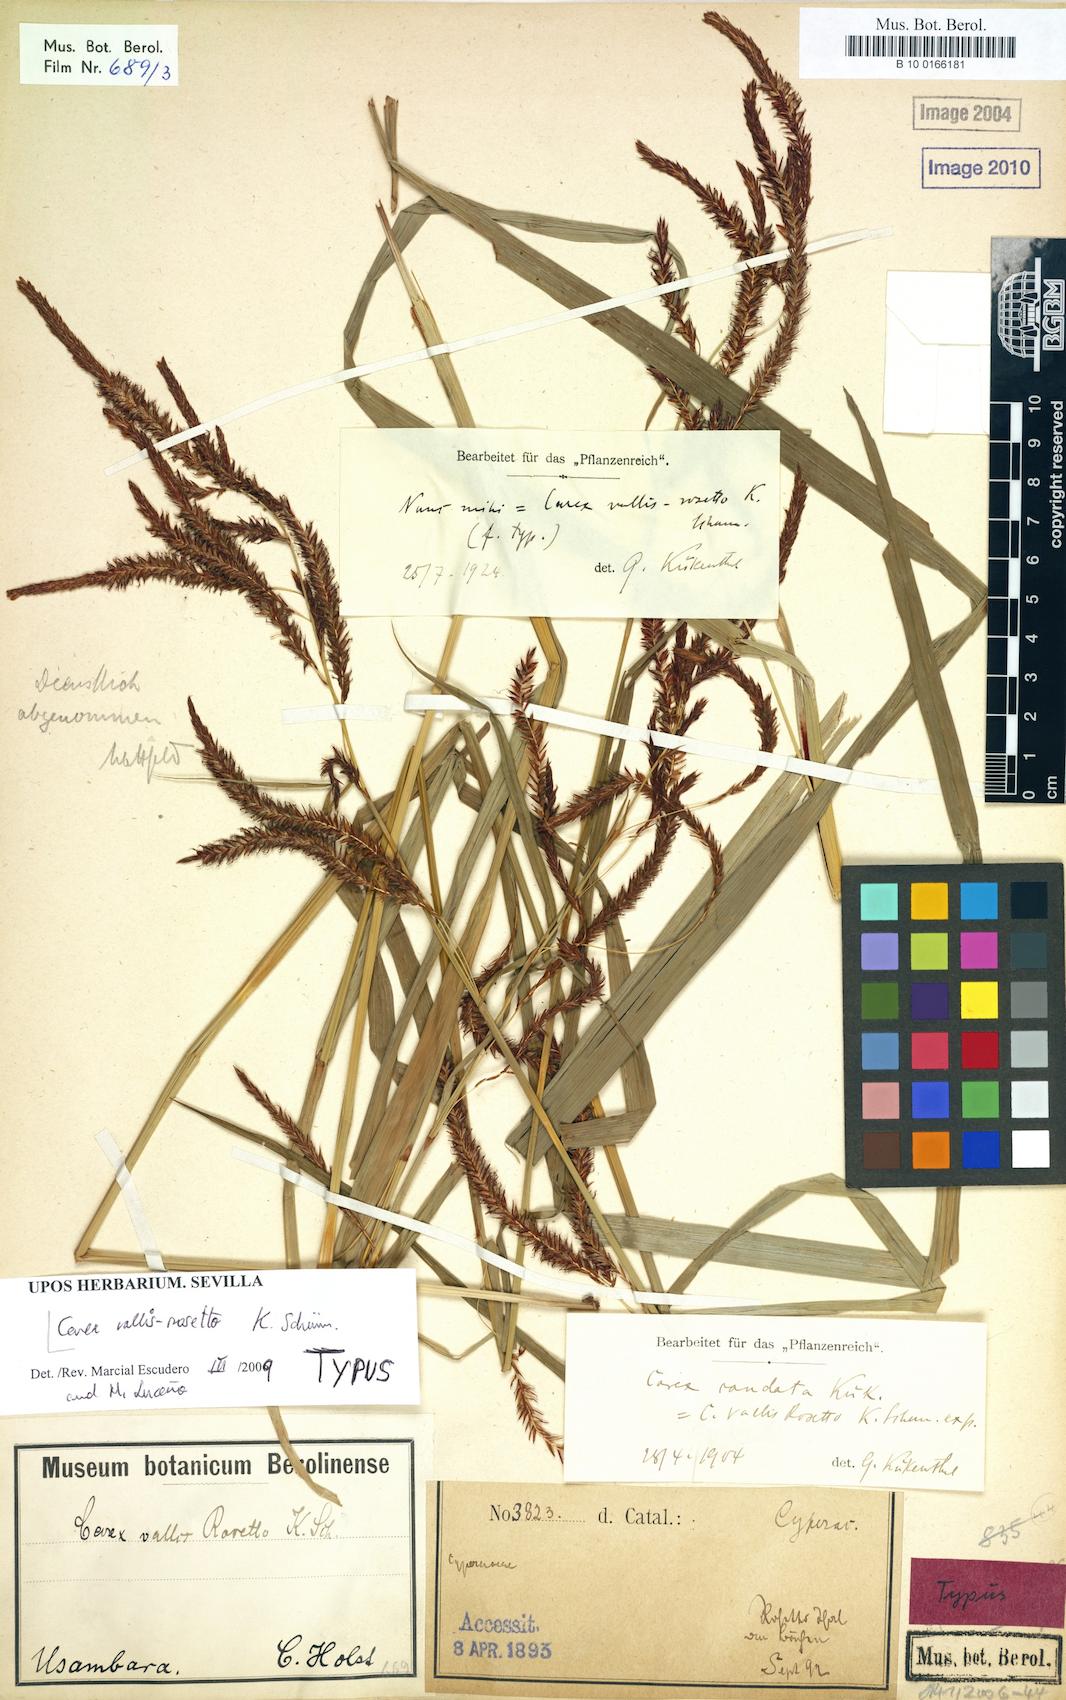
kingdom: Plantae
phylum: Tracheophyta
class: Liliopsida
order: Poales
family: Cyperaceae
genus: Carex
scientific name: Carex vallis-rosetta
